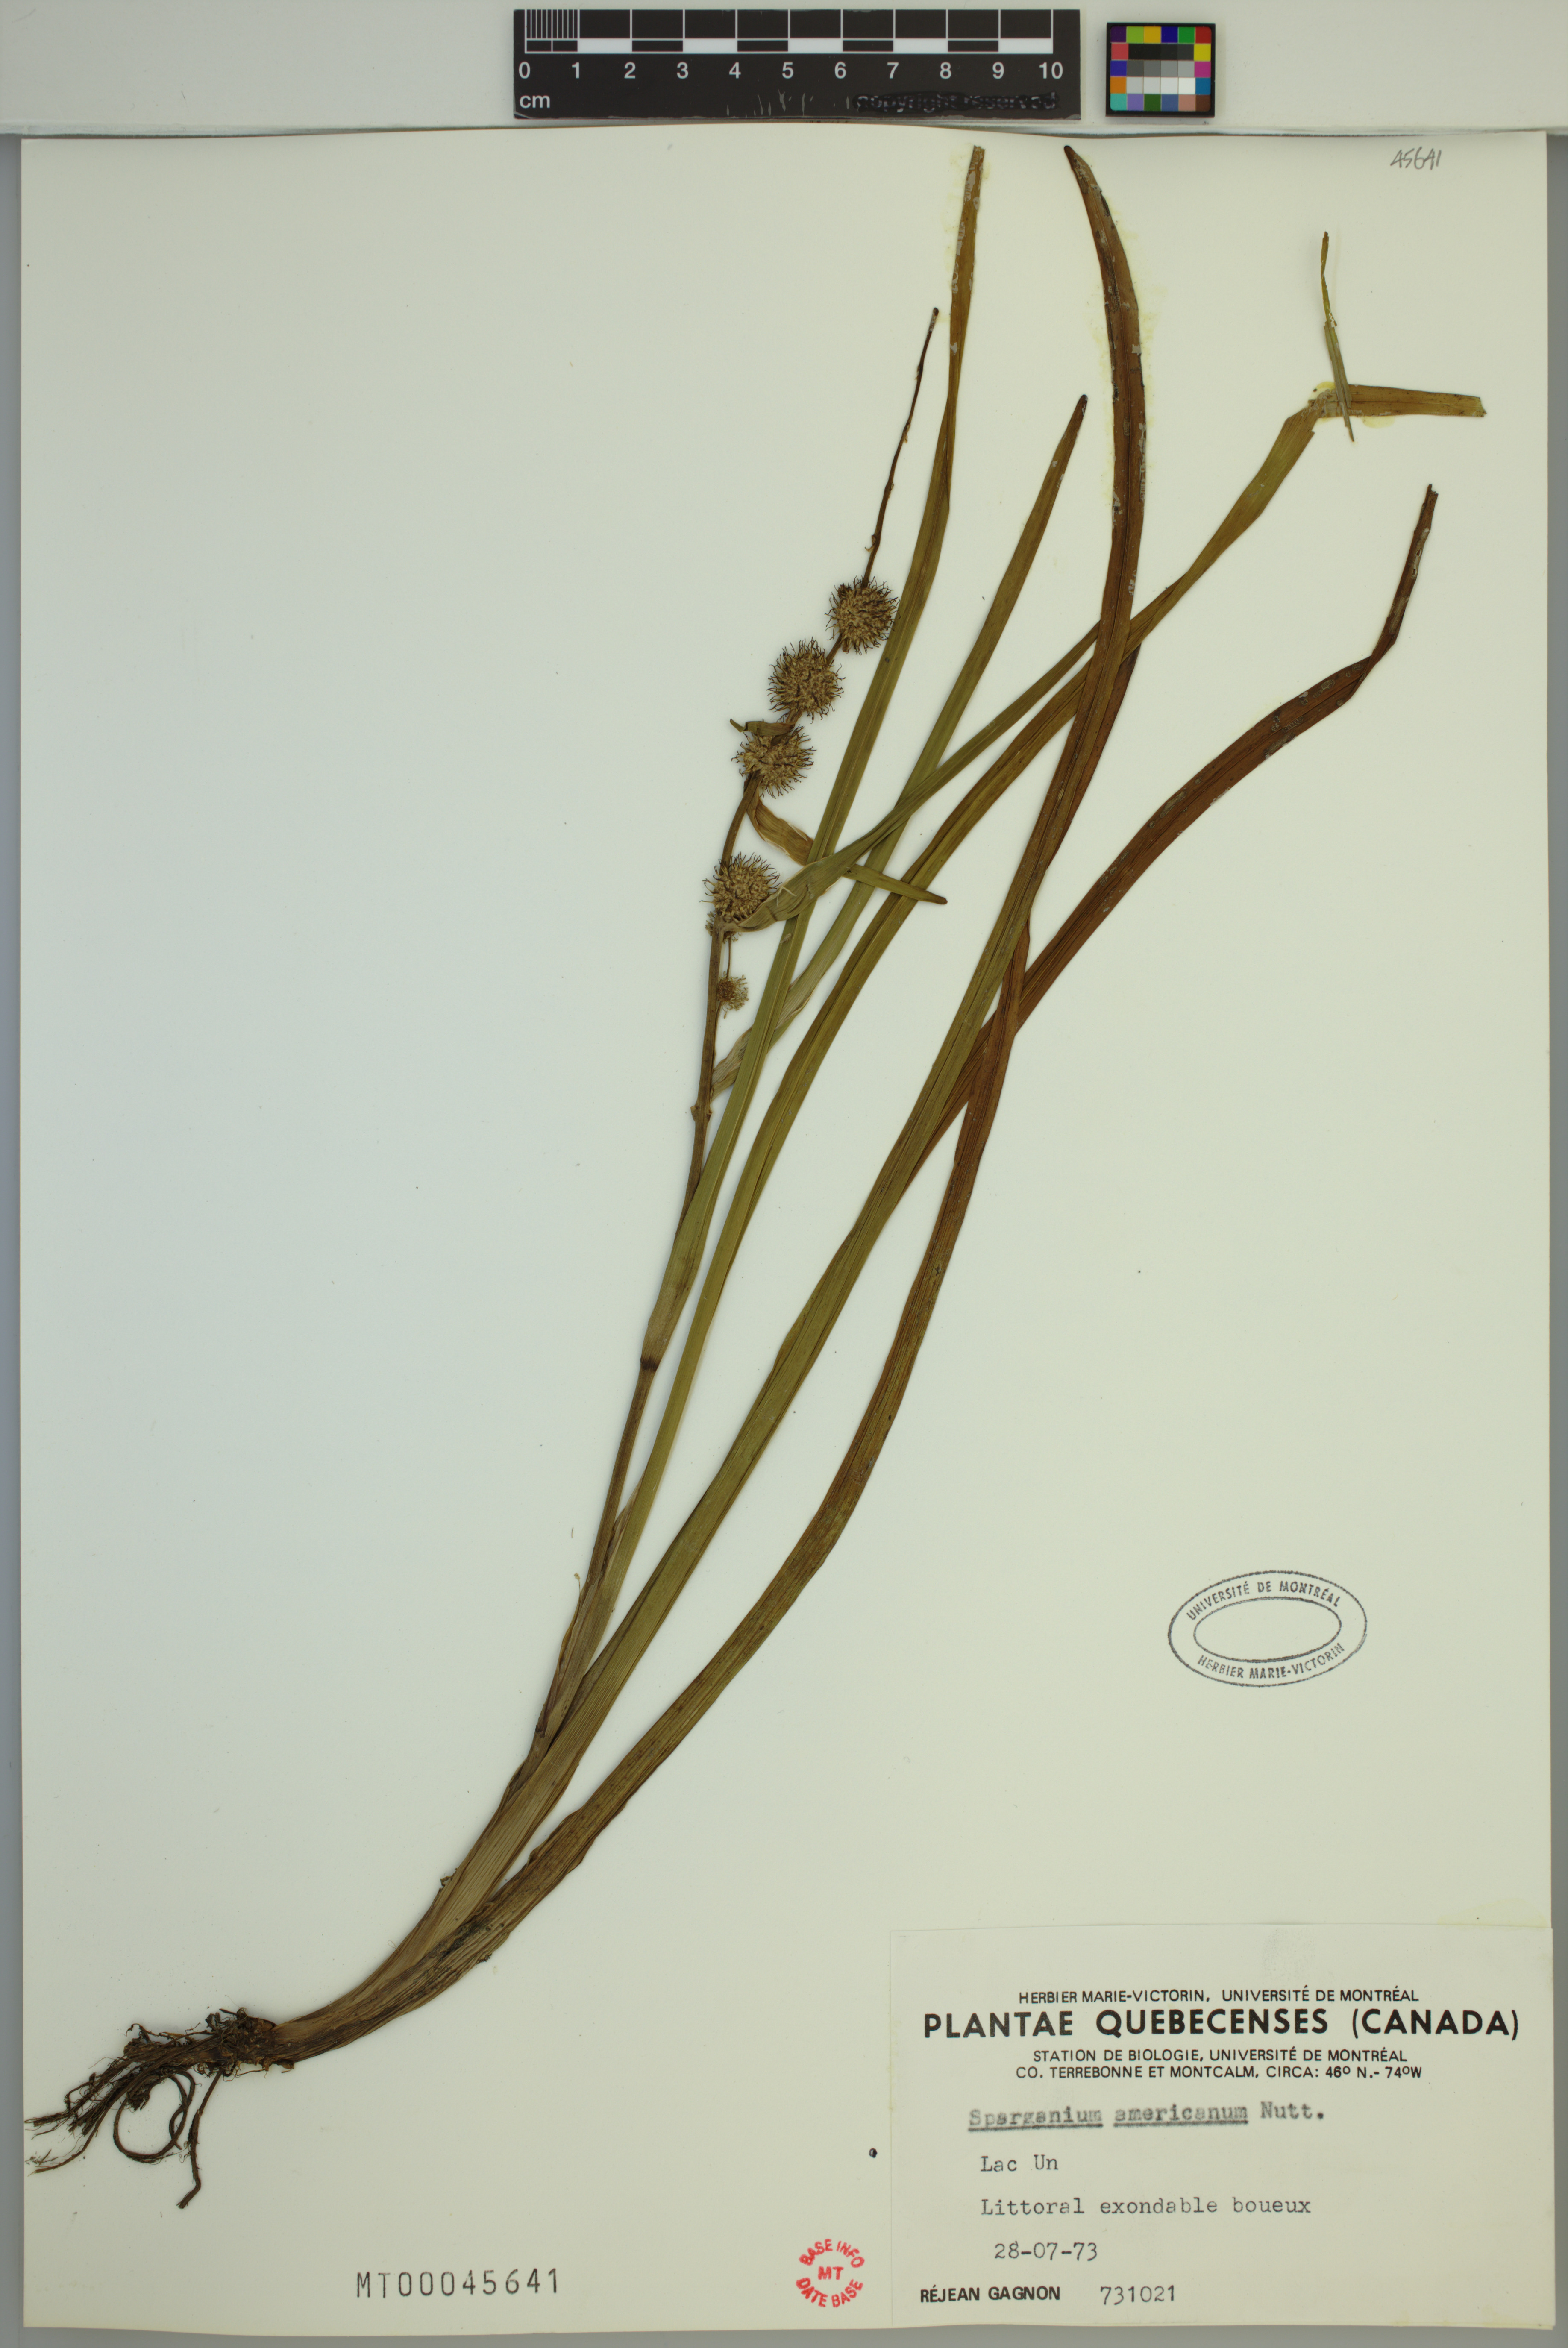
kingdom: Plantae
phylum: Tracheophyta
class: Liliopsida
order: Poales
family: Typhaceae
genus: Sparganium
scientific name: Sparganium americanum
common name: American burreed
